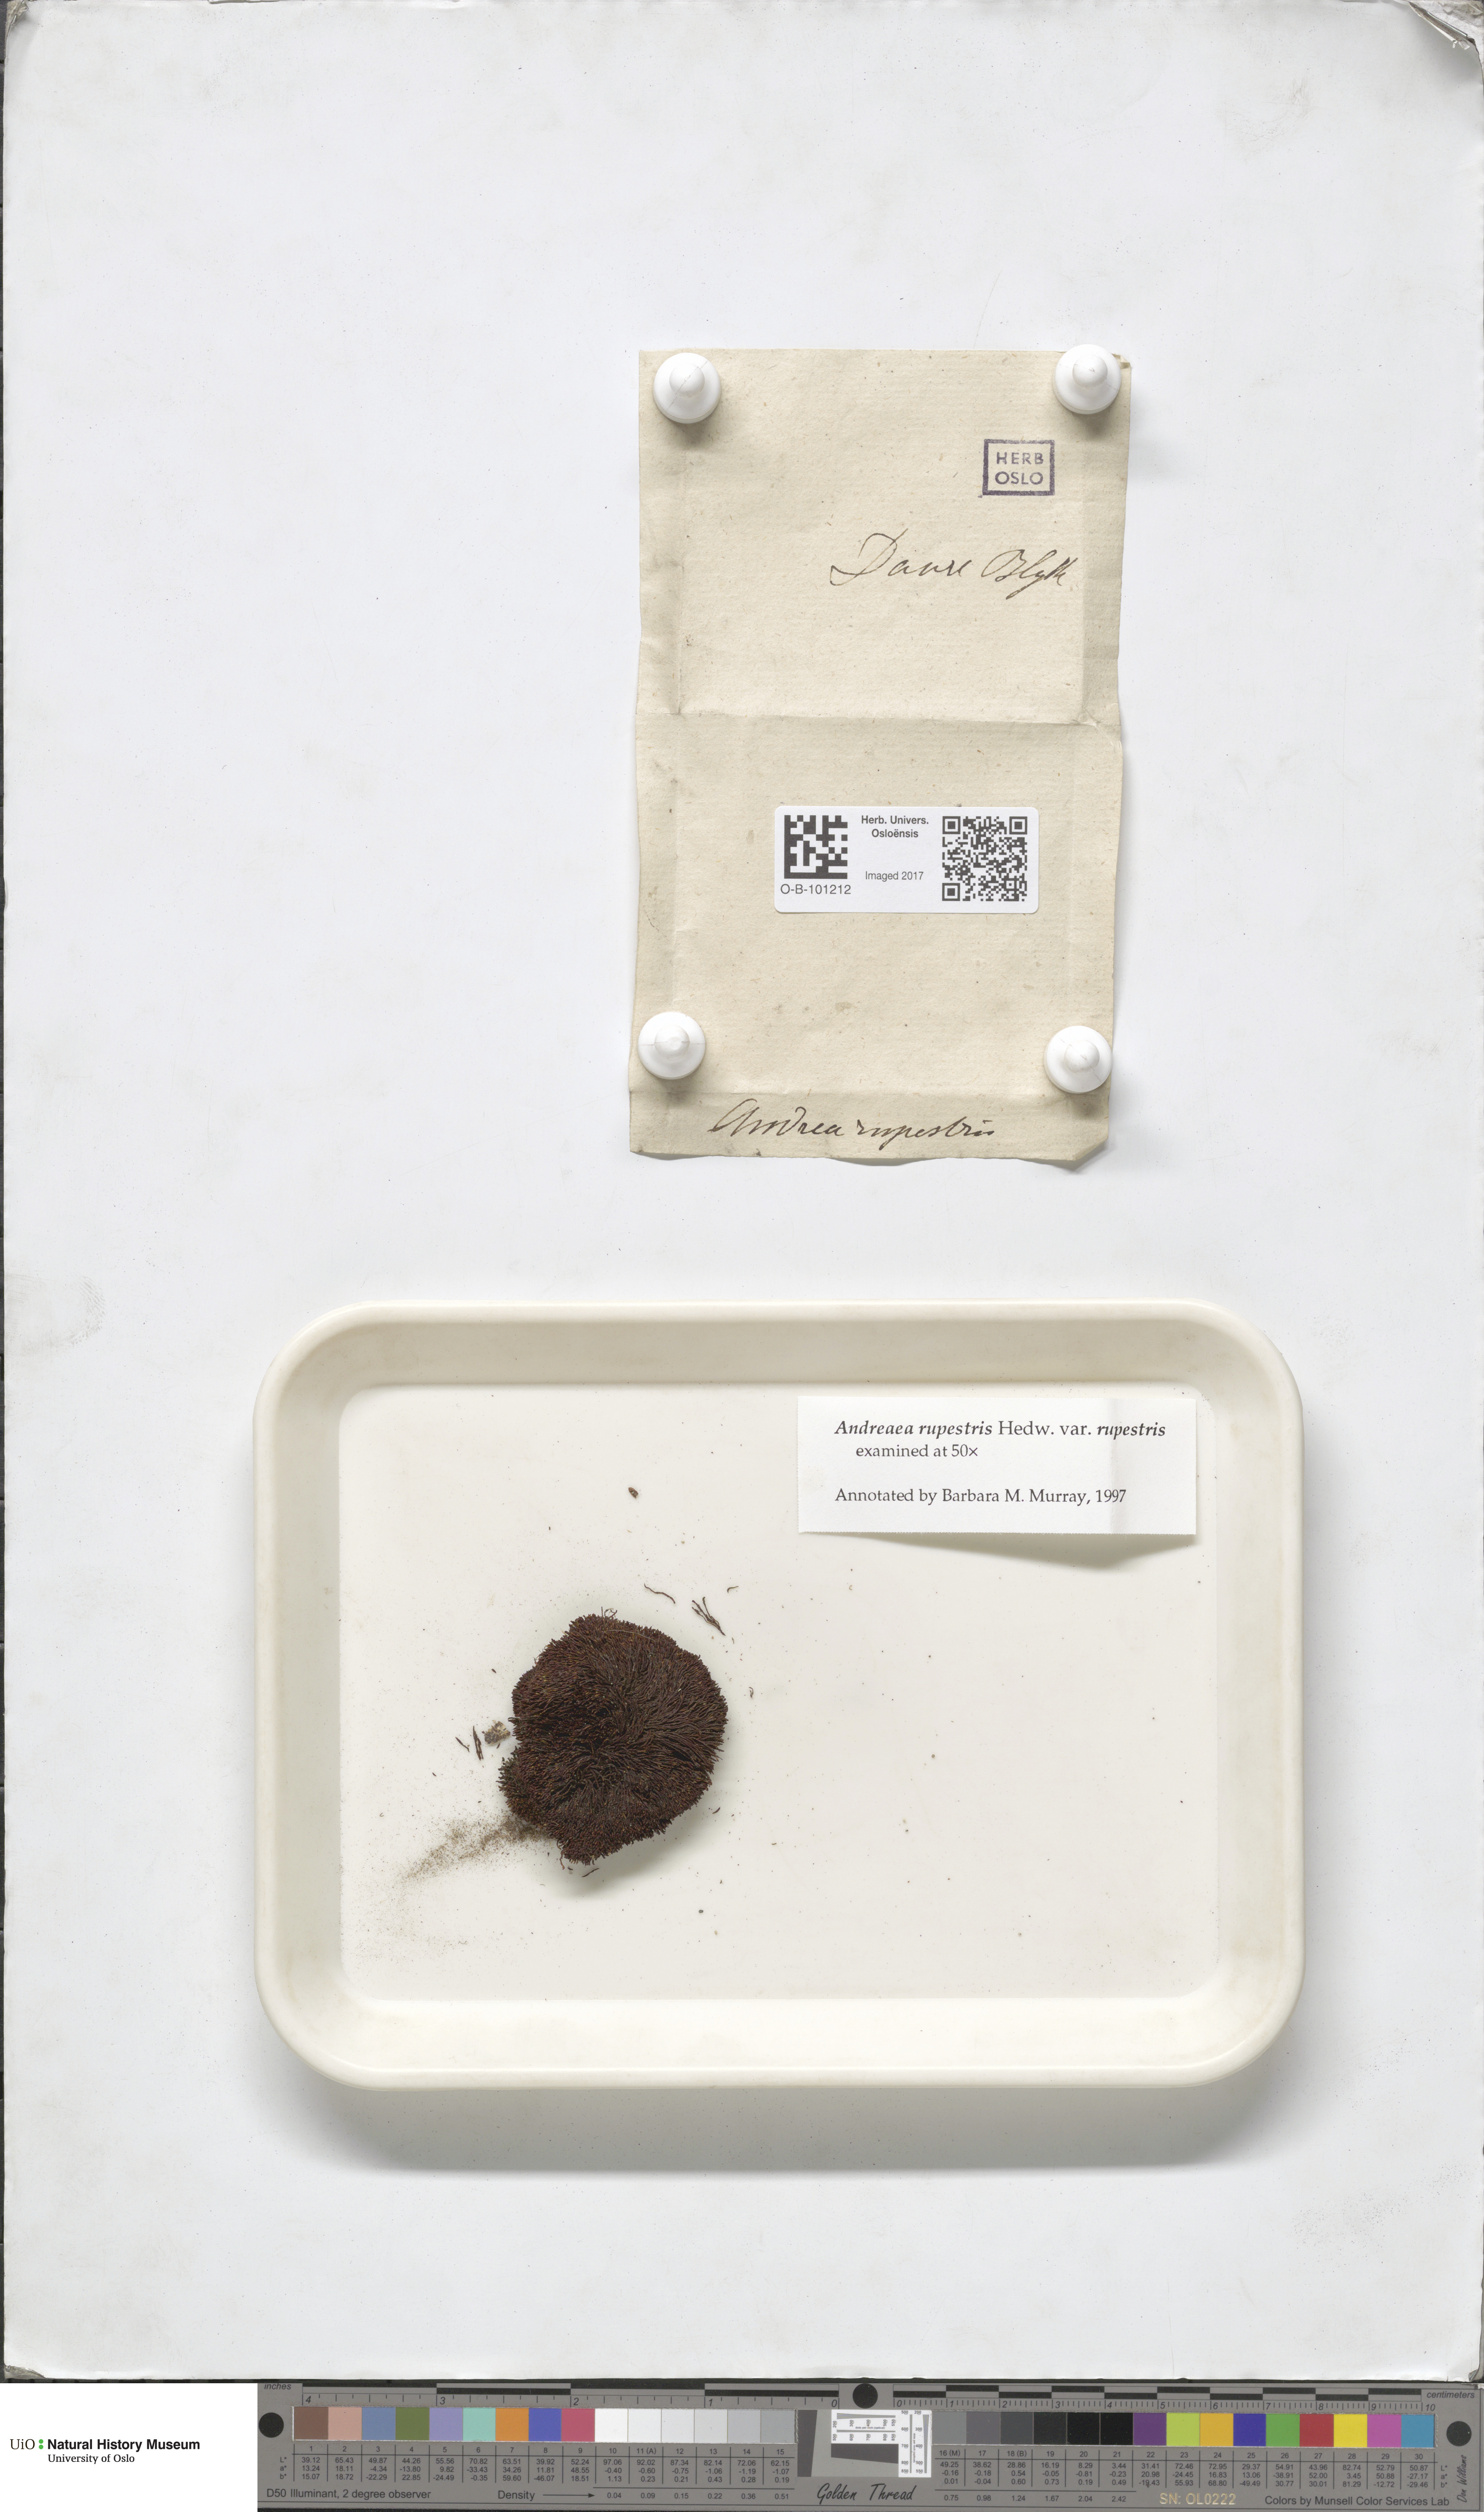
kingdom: Plantae
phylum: Bryophyta
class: Andreaeopsida
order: Andreaeales
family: Andreaeaceae
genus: Andreaea
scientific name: Andreaea rupestris
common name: Black rock moss
